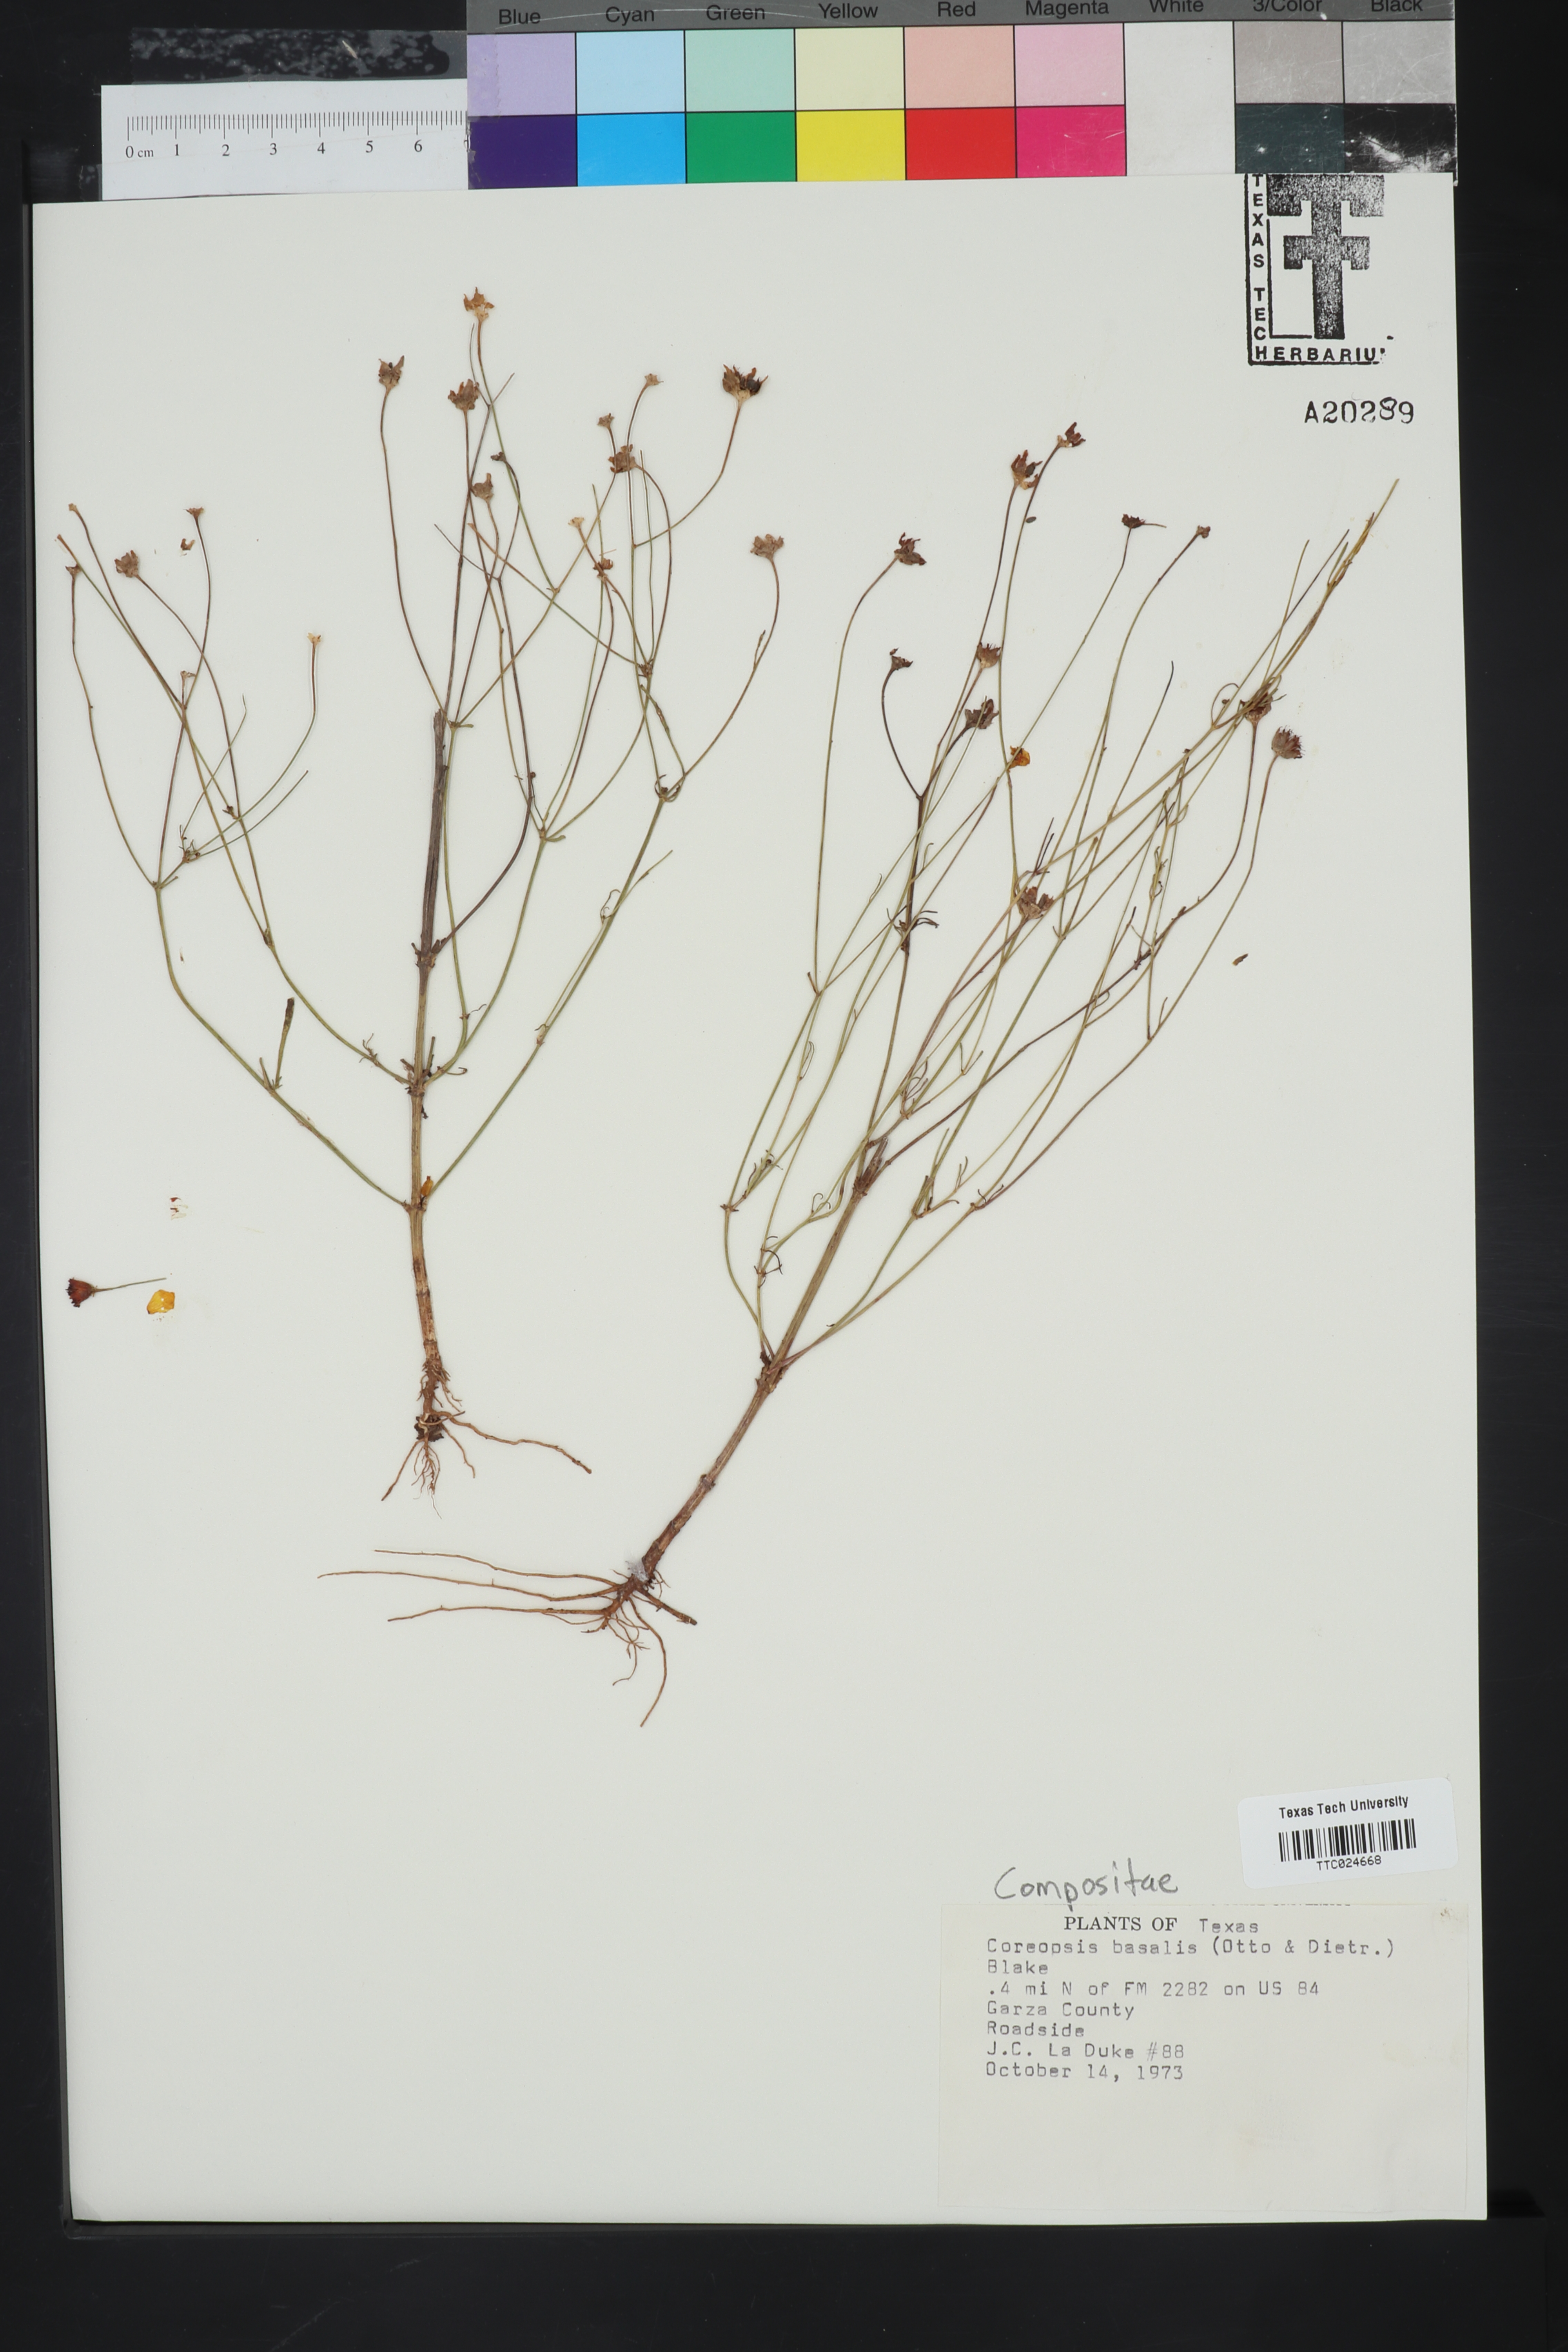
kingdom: Plantae
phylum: Tracheophyta
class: Magnoliopsida
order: Asterales
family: Asteraceae
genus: Coreopsis
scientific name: Coreopsis basalis
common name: Golden-mane coreopsis
